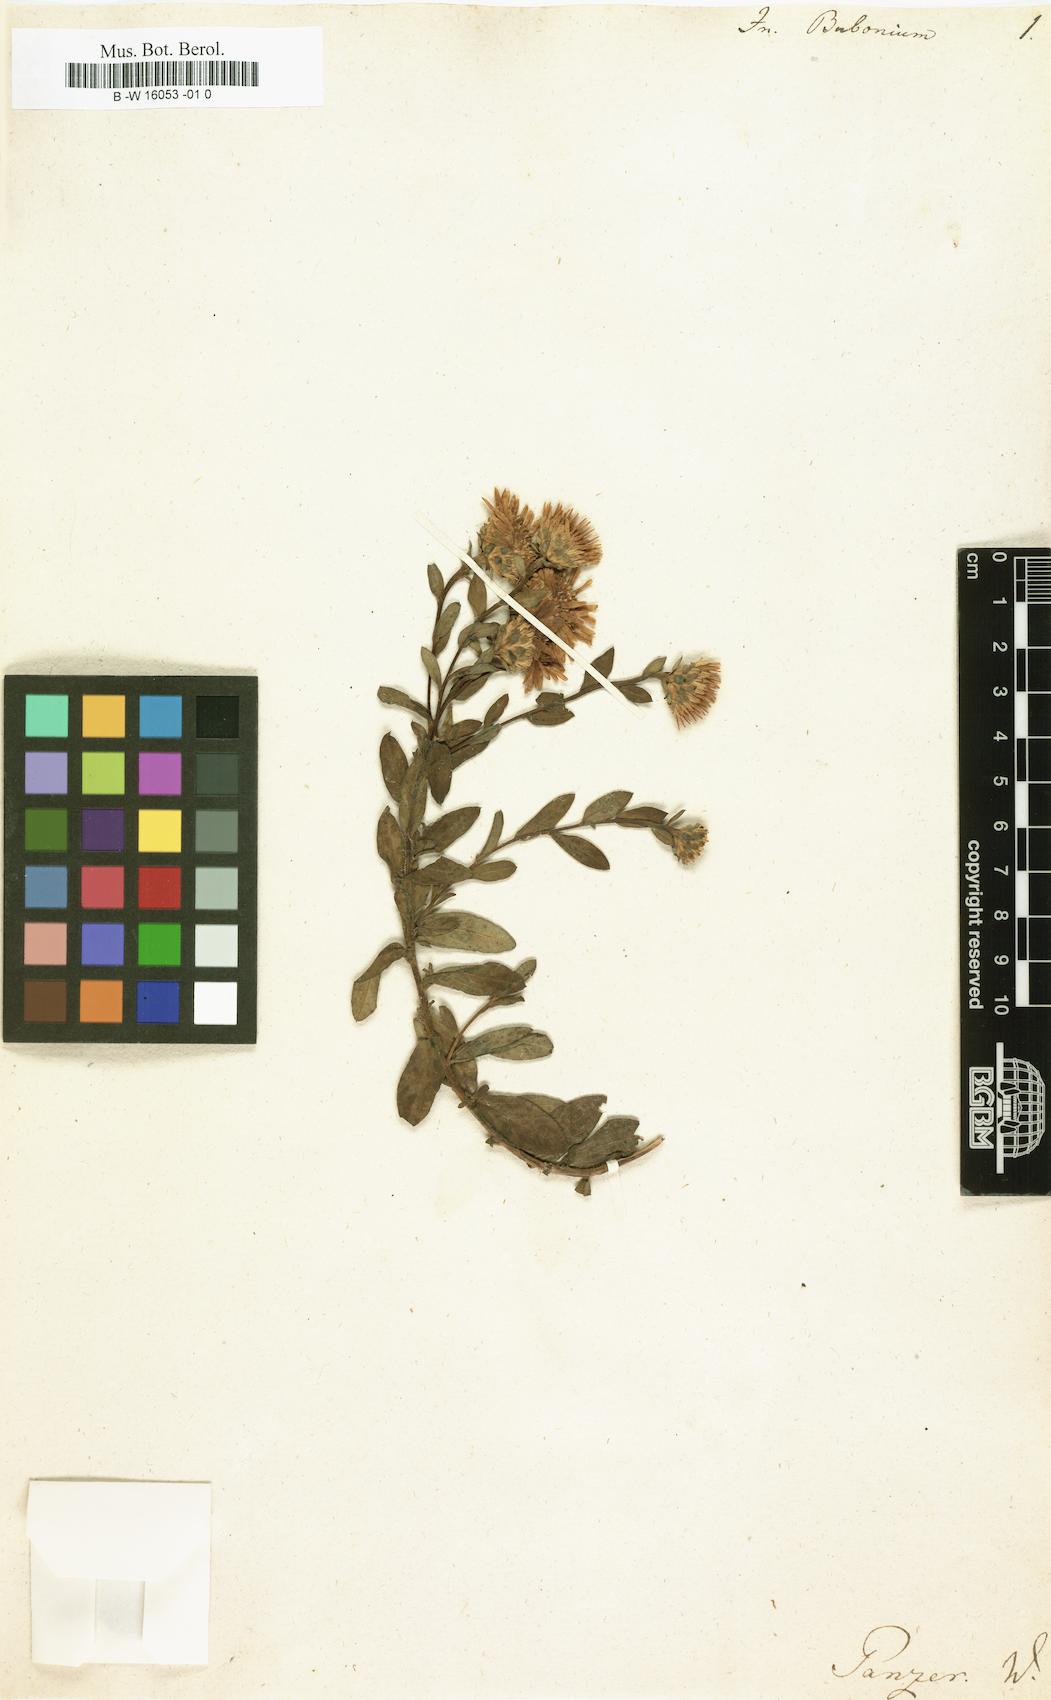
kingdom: Plantae
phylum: Tracheophyta
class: Magnoliopsida
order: Asterales
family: Asteraceae
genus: Pentanema
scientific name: Pentanema
